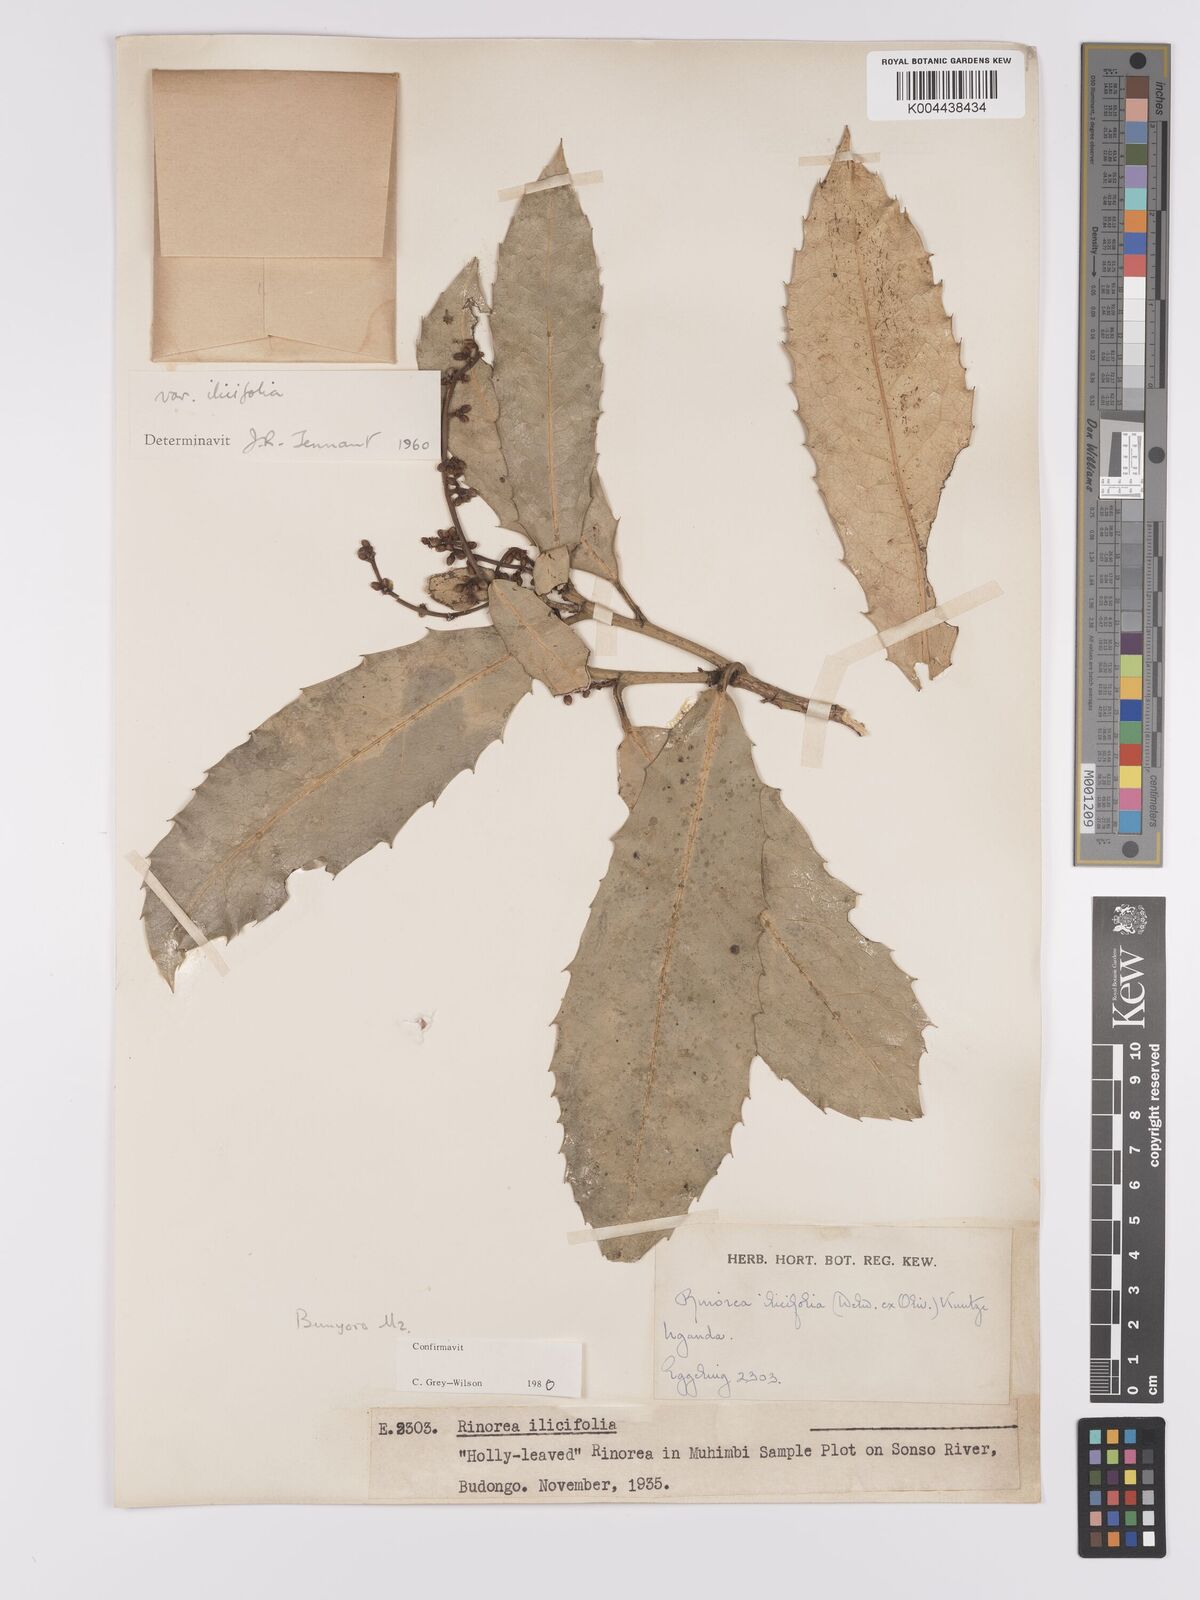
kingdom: Plantae
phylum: Tracheophyta
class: Magnoliopsida
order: Malpighiales
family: Violaceae
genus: Rinorea
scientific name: Rinorea ilicifolia
